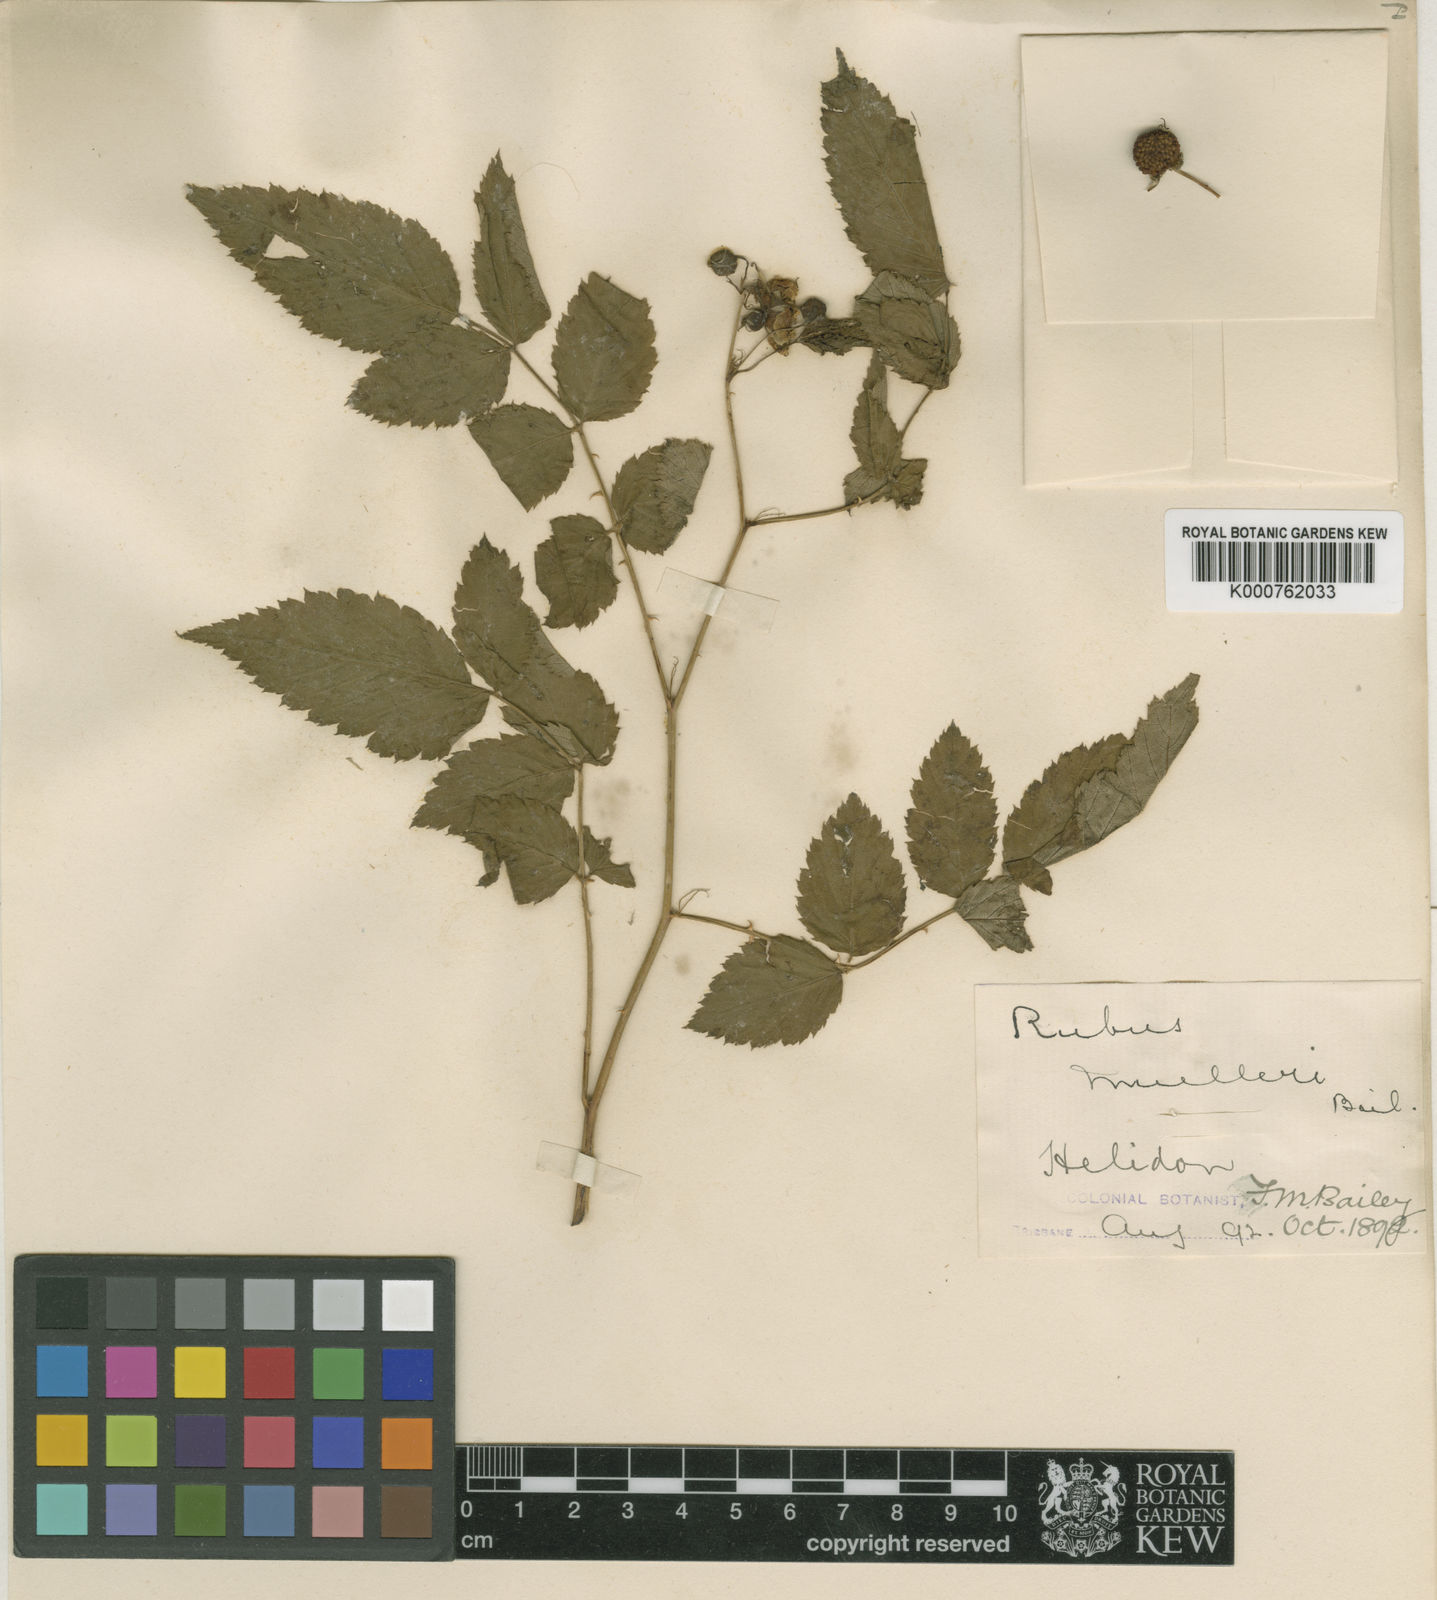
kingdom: Plantae
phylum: Tracheophyta
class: Magnoliopsida
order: Rosales
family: Rosaceae
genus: Rubus
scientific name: Rubus moorei
